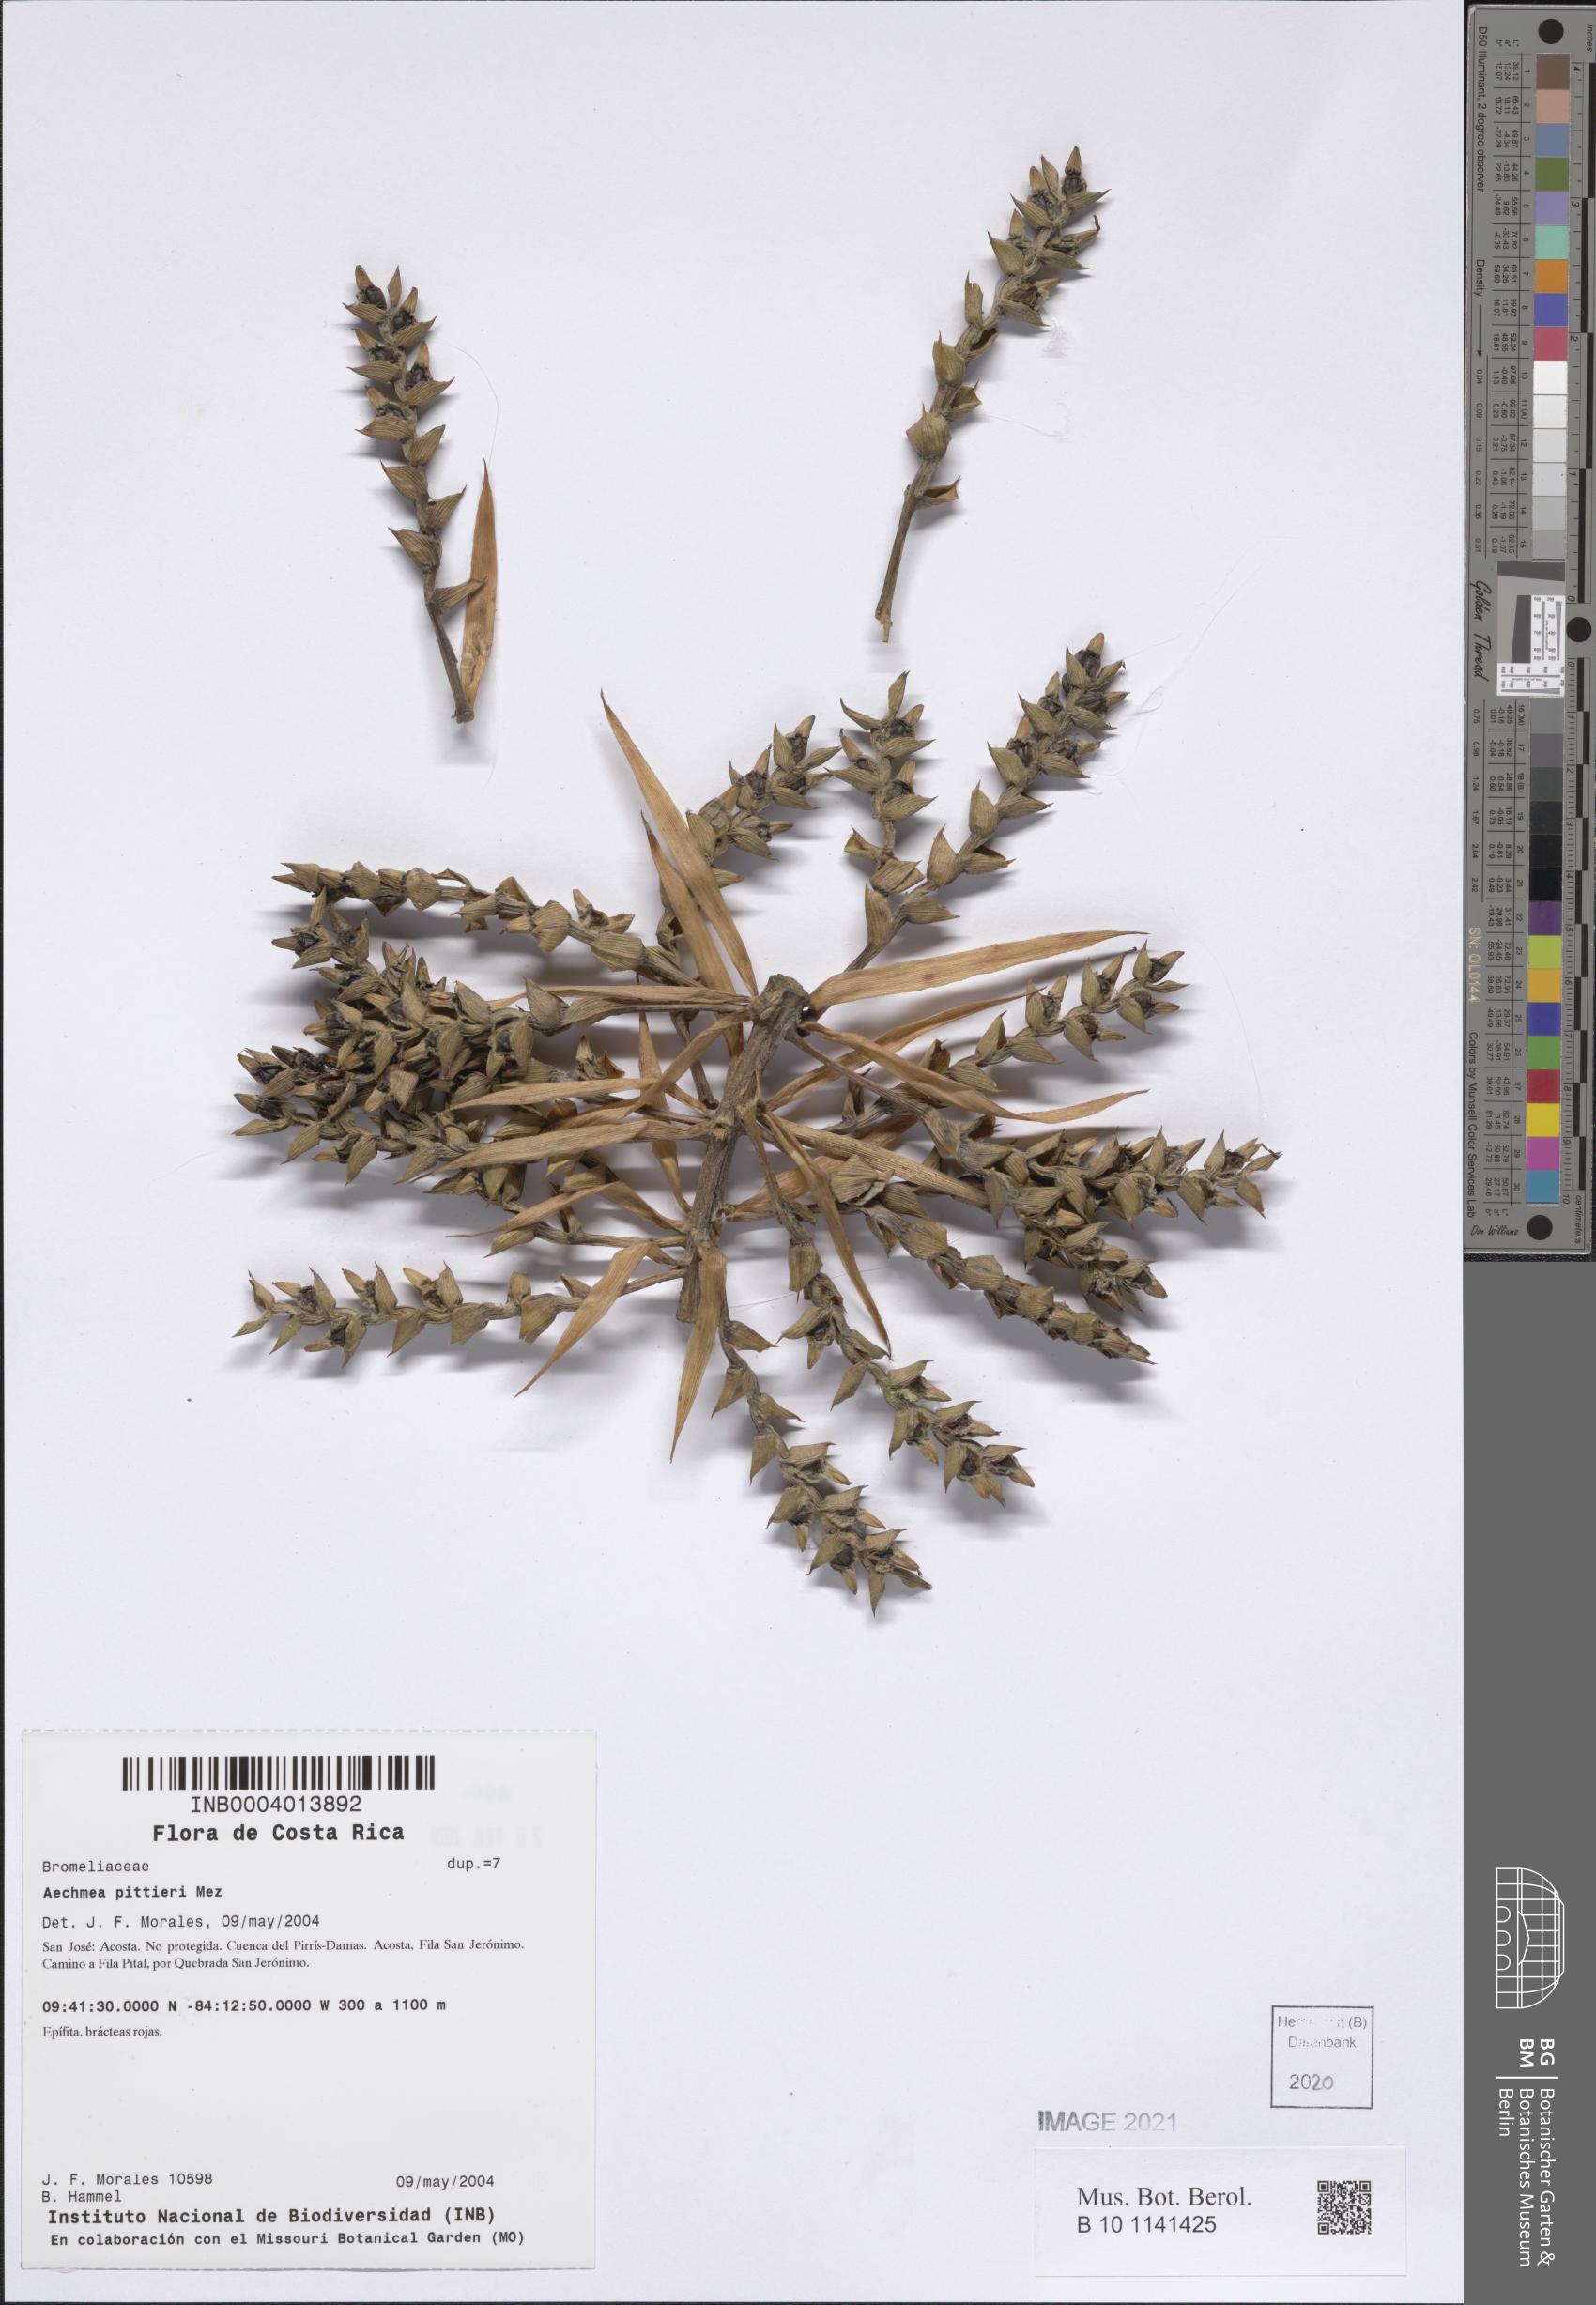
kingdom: Plantae
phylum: Tracheophyta
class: Liliopsida
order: Poales
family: Bromeliaceae
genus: Aechmea
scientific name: Aechmea pittieri
